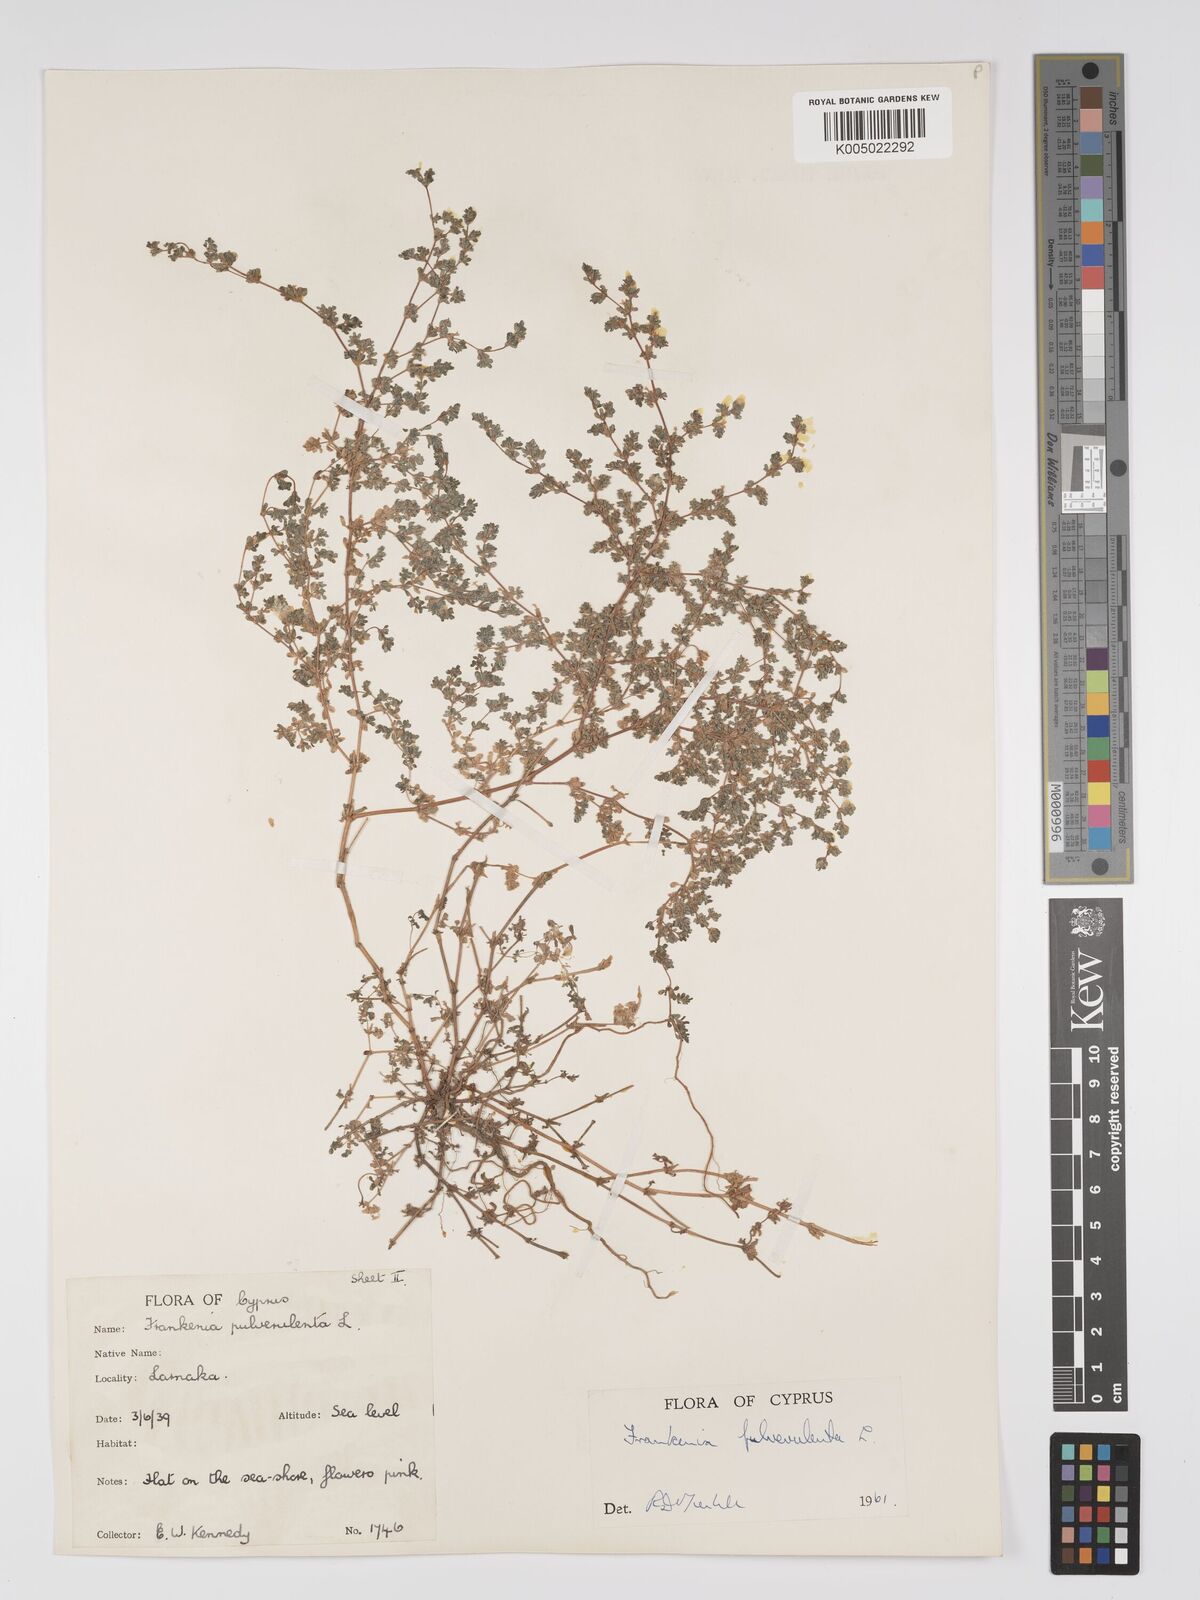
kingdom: Plantae
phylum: Tracheophyta
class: Magnoliopsida
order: Caryophyllales
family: Frankeniaceae
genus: Frankenia
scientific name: Frankenia pulverulenta
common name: European seaheath
